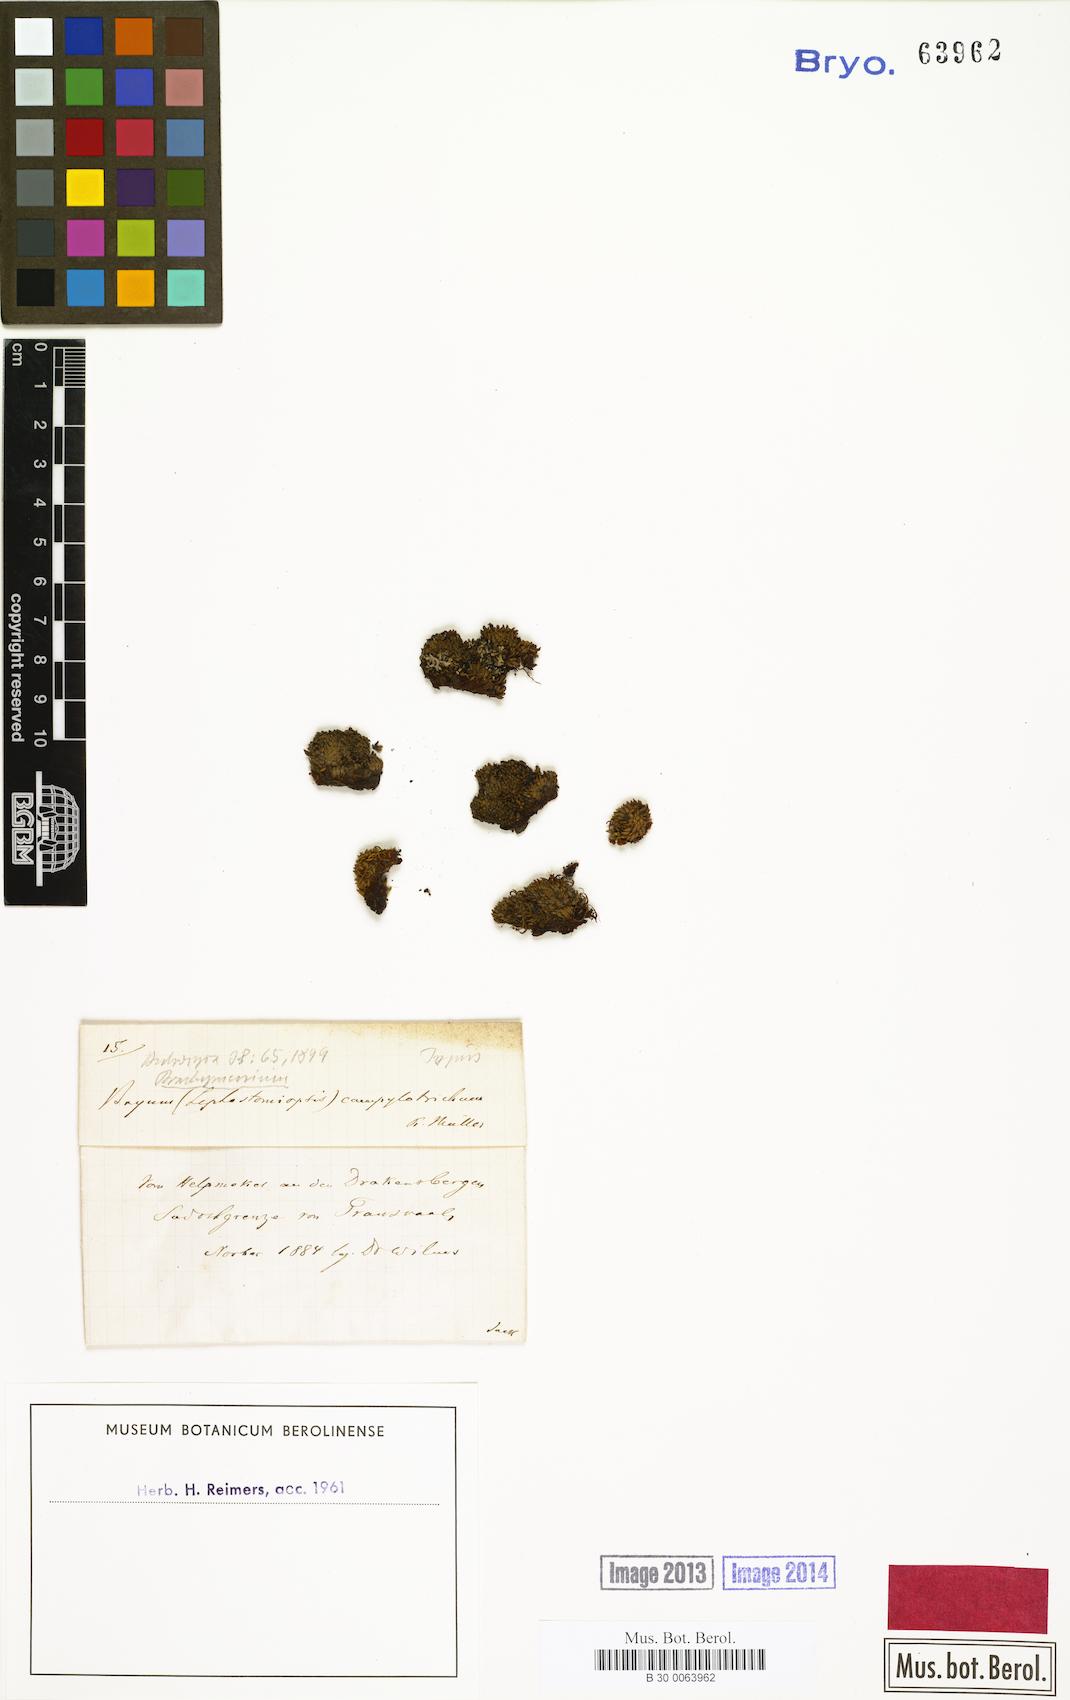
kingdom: Plantae
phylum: Bryophyta
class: Bryopsida
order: Bryales
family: Bryaceae
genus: Leptostomopsis
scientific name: Leptostomopsis angolensis
